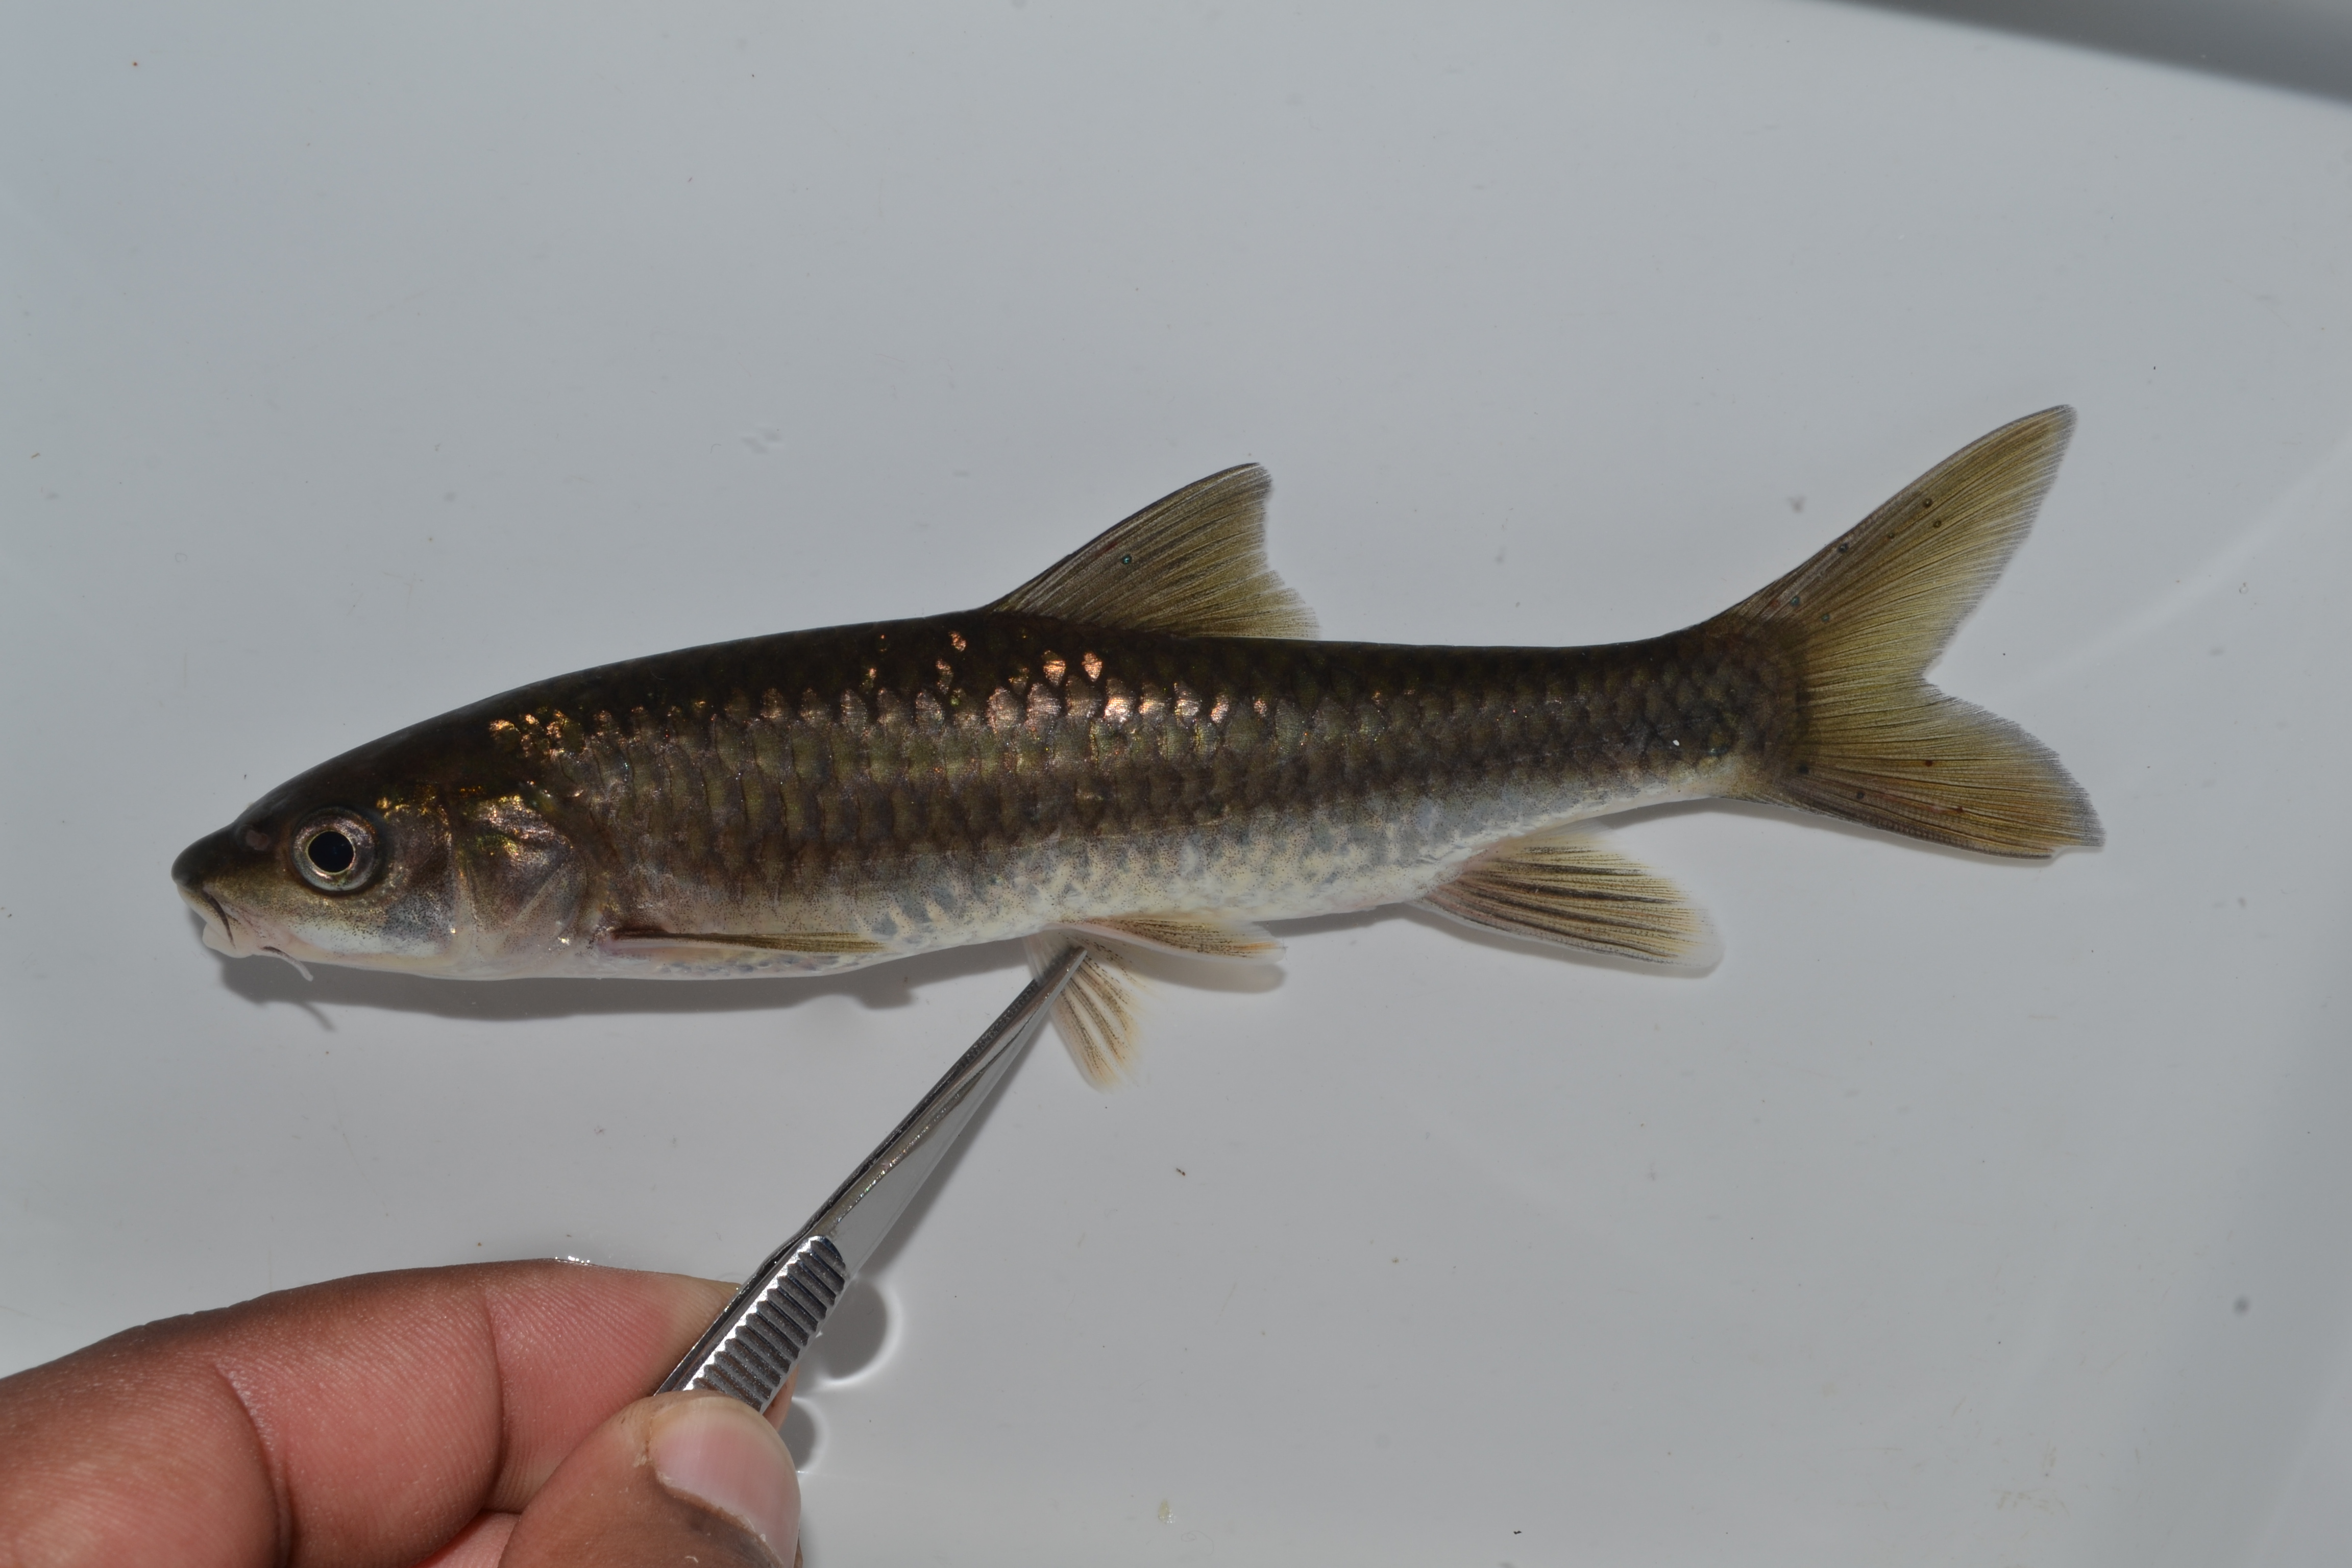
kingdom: Animalia
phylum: Chordata
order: Cypriniformes
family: Cyprinidae
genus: Labeobarbus
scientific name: Labeobarbus natalensis
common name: Scaly
